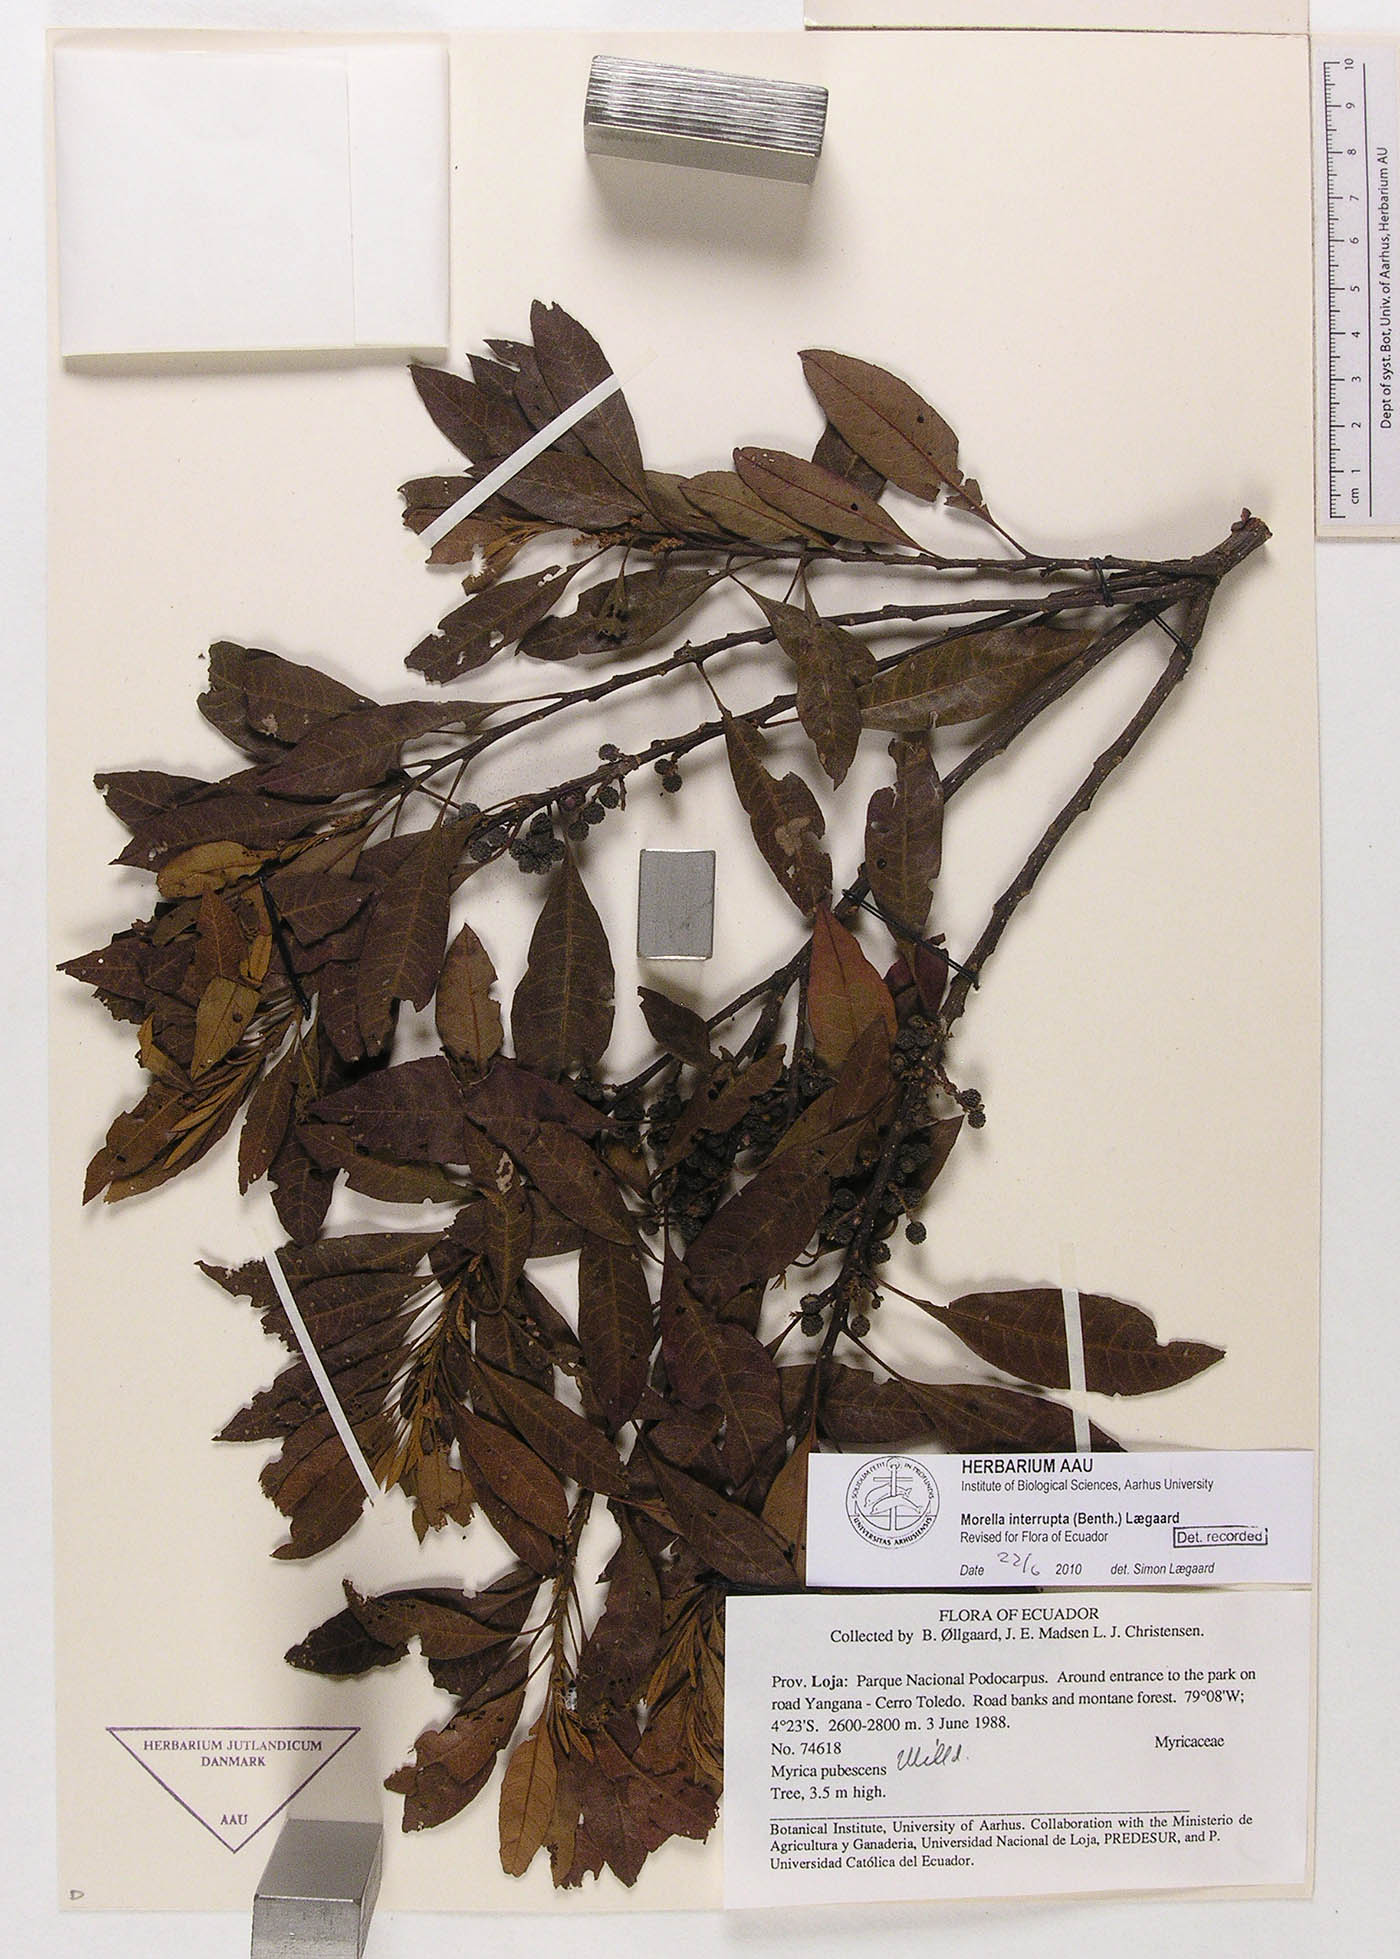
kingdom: Plantae
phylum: Tracheophyta
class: Magnoliopsida
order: Fagales
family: Myricaceae
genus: Morella
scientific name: Morella interrupta
